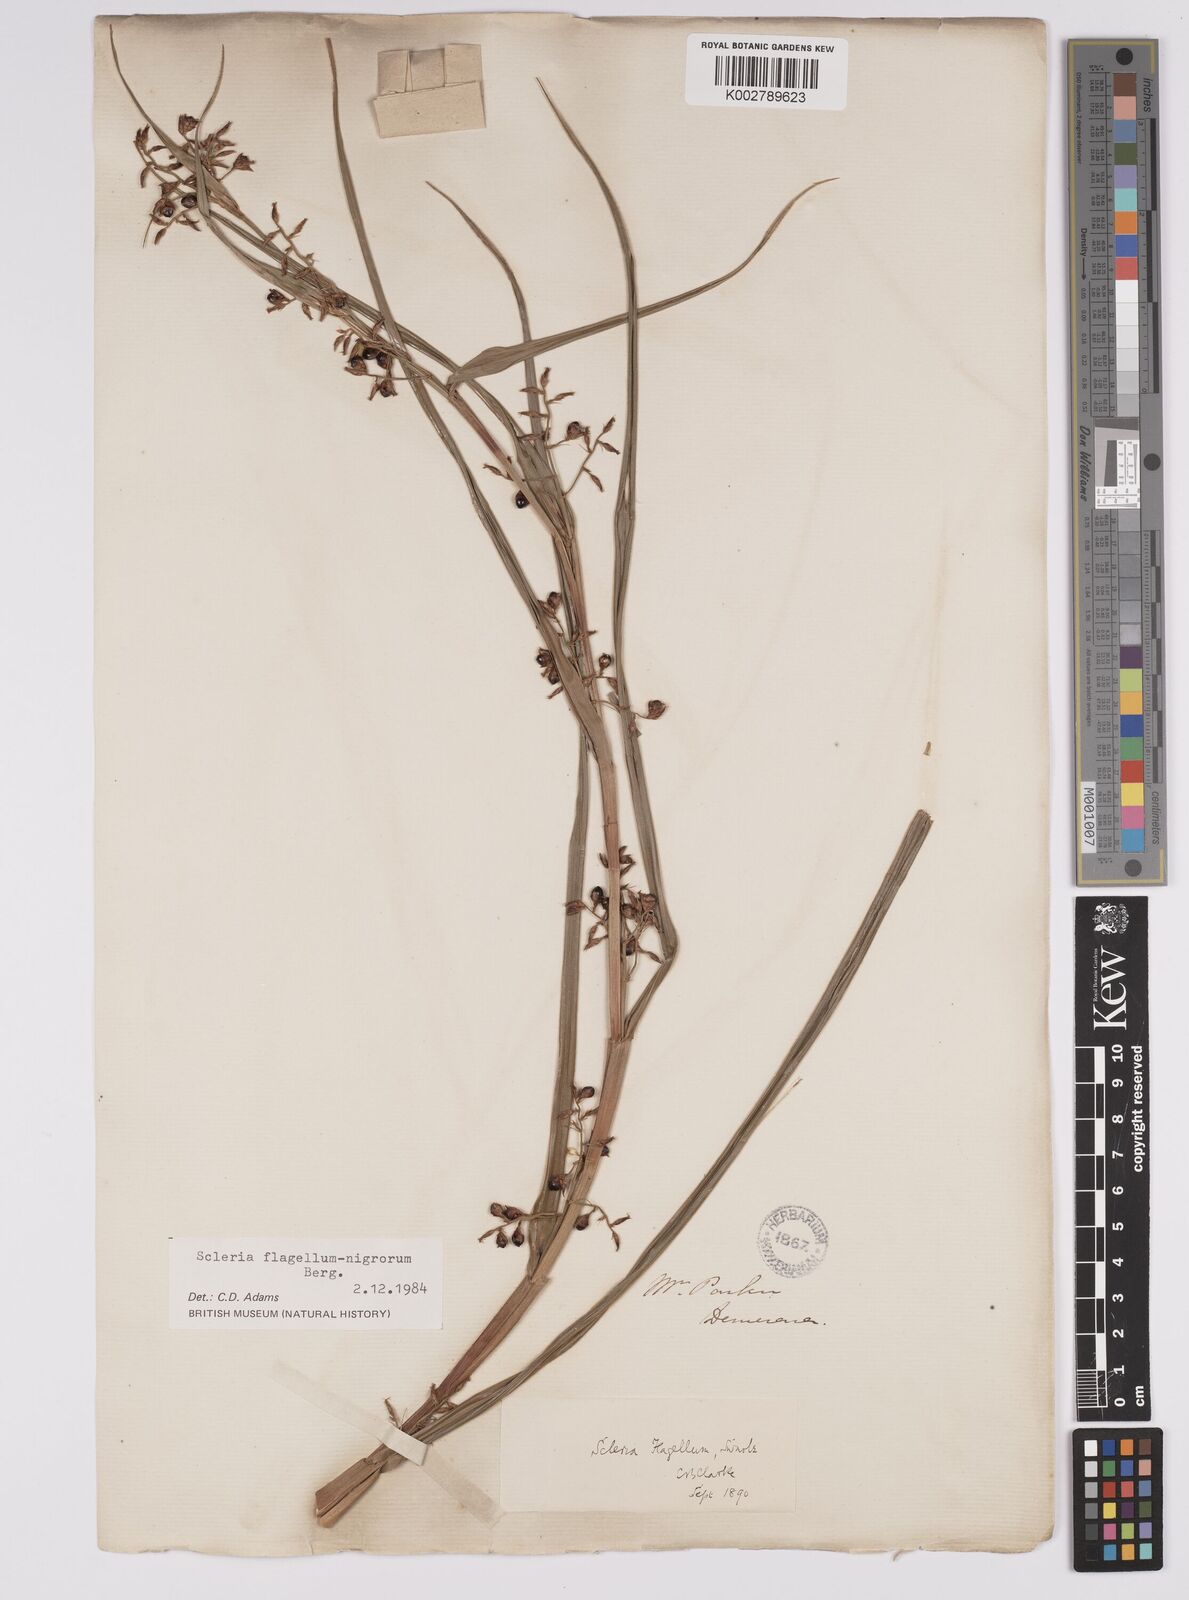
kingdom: Plantae
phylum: Tracheophyta
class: Liliopsida
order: Poales
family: Cyperaceae
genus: Scleria
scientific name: Scleria flagellum-nigrorum
